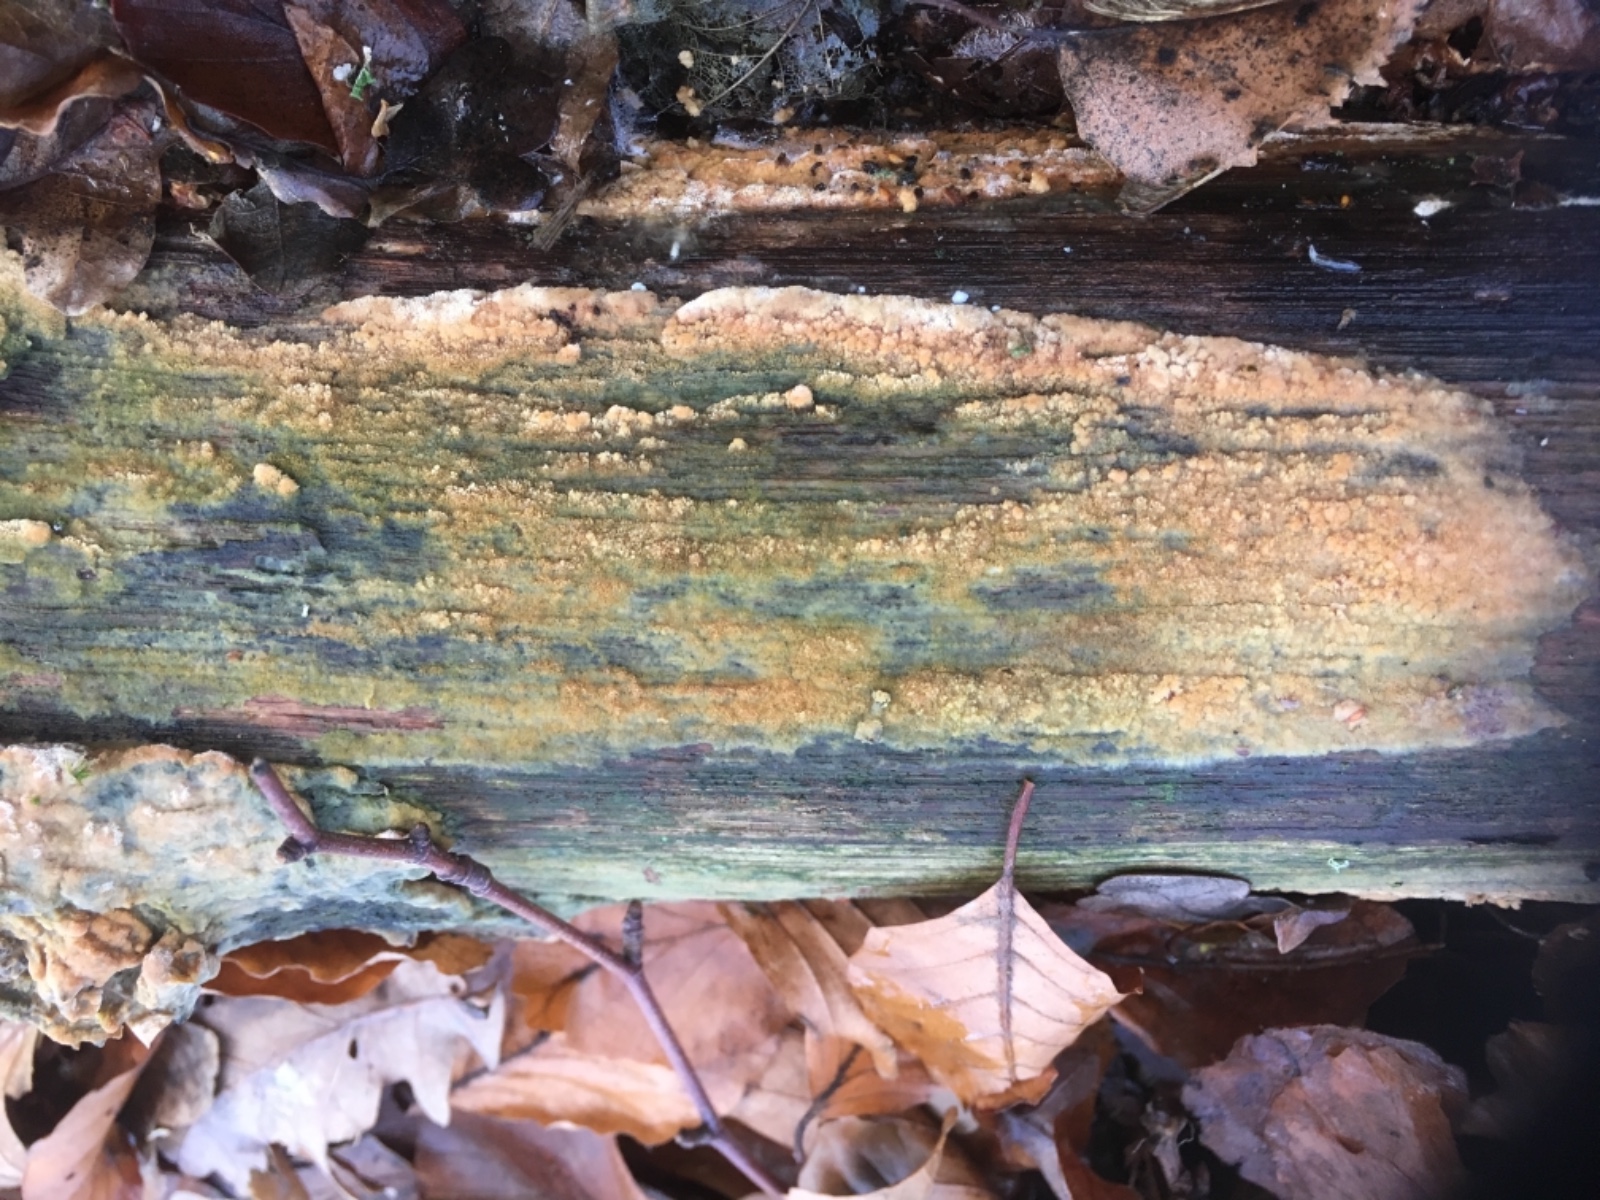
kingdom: Fungi
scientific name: Fungi
